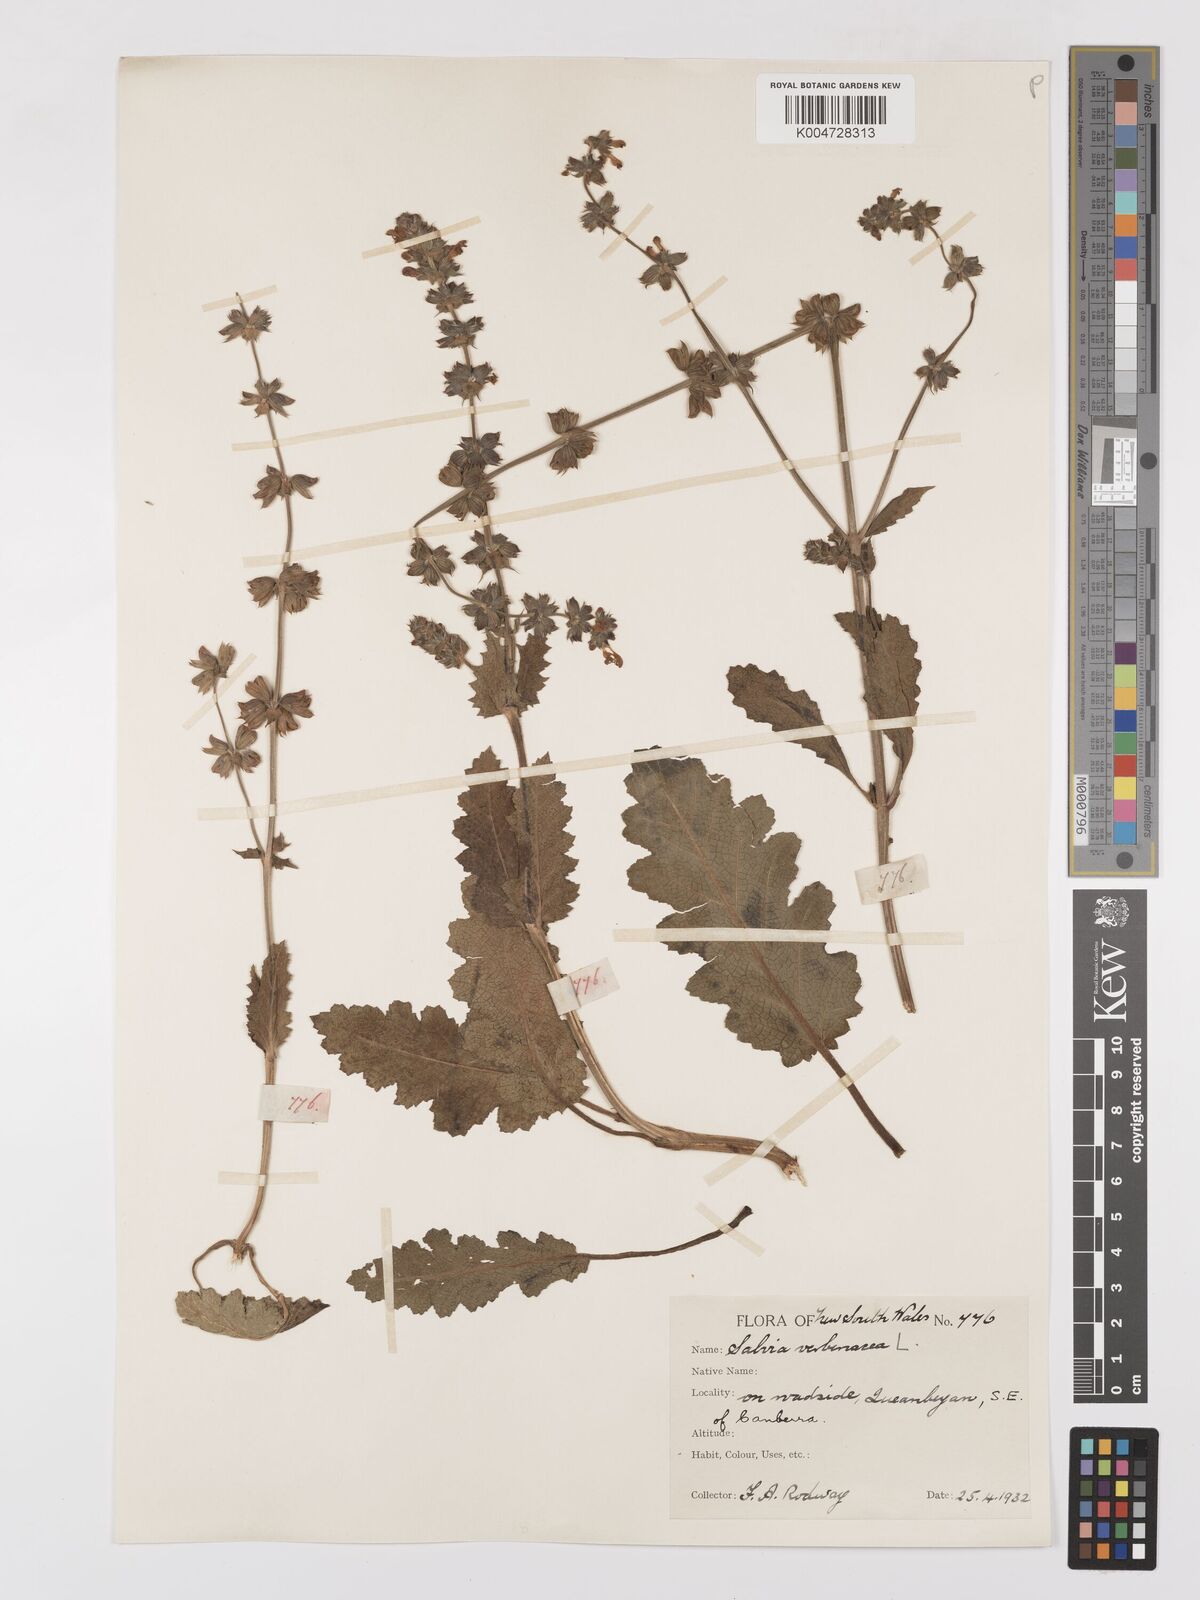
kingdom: Plantae
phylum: Tracheophyta
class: Magnoliopsida
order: Lamiales
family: Lamiaceae
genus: Salvia
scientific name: Salvia verbenaca
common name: Wild clary
